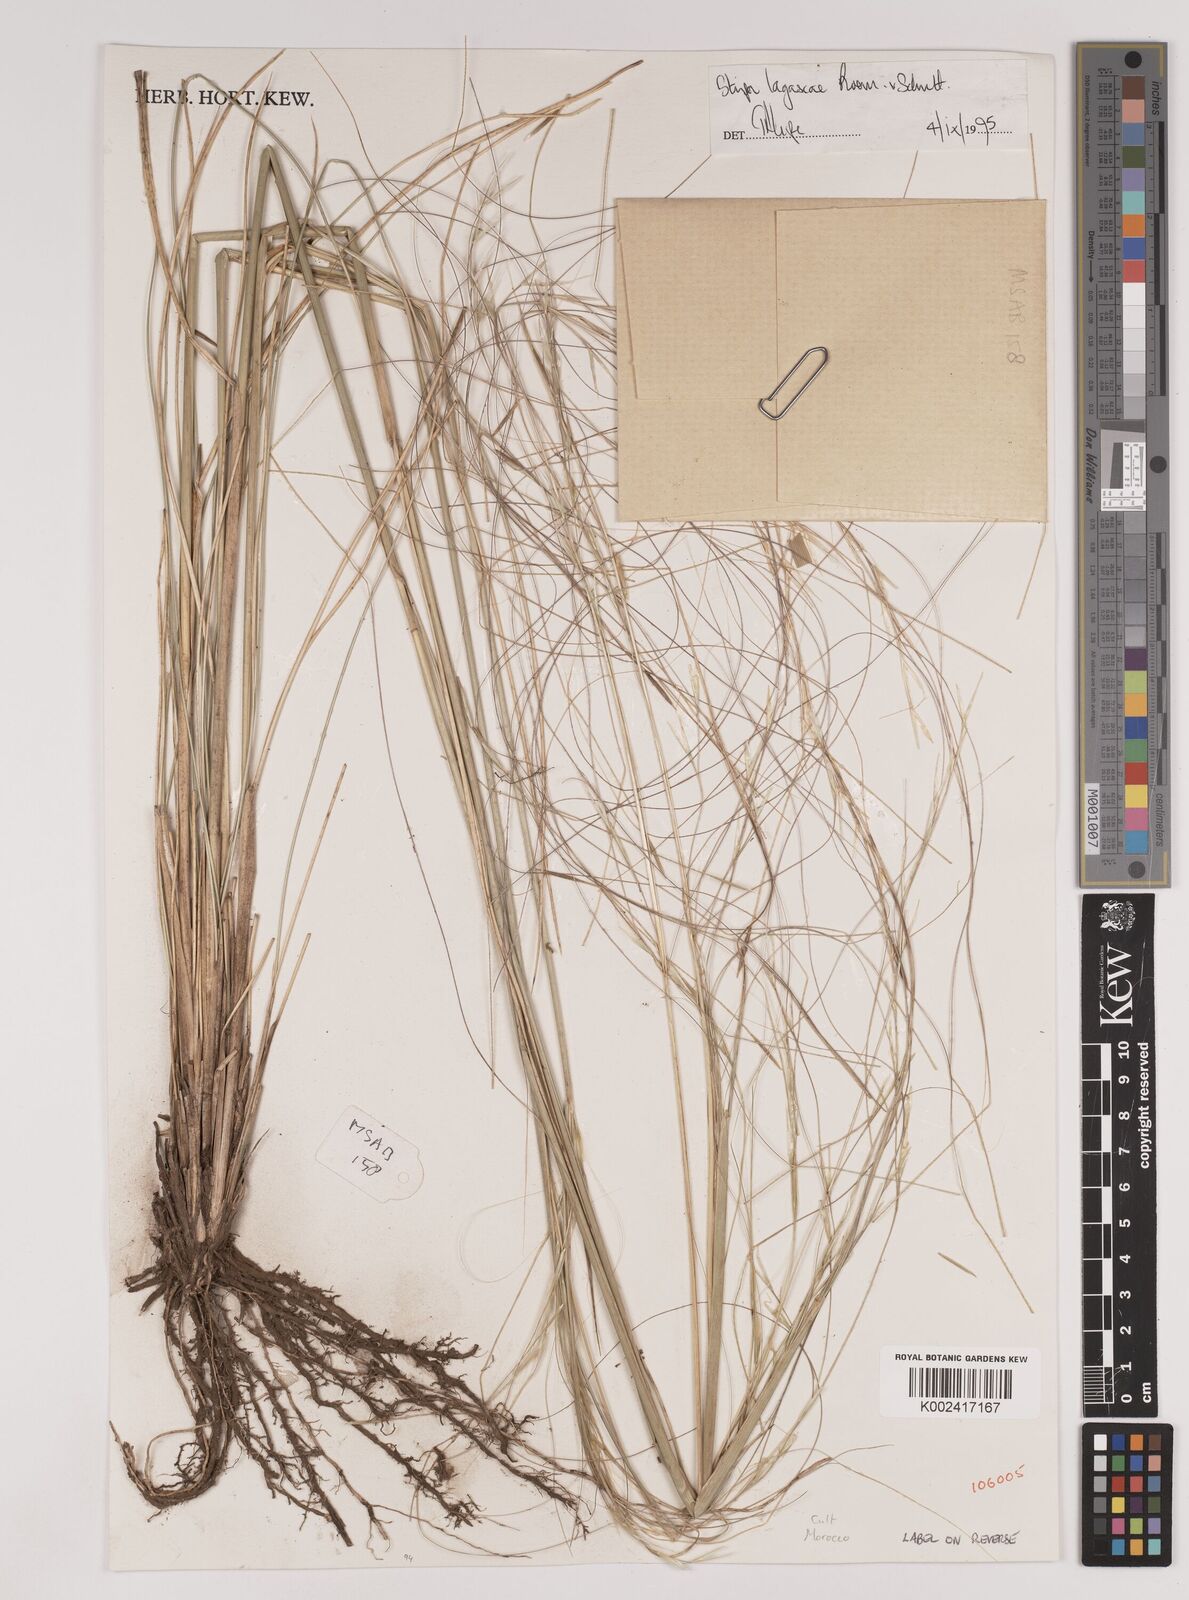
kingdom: Plantae
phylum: Tracheophyta
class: Liliopsida
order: Poales
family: Poaceae
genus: Stipa
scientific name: Stipa lagascae
